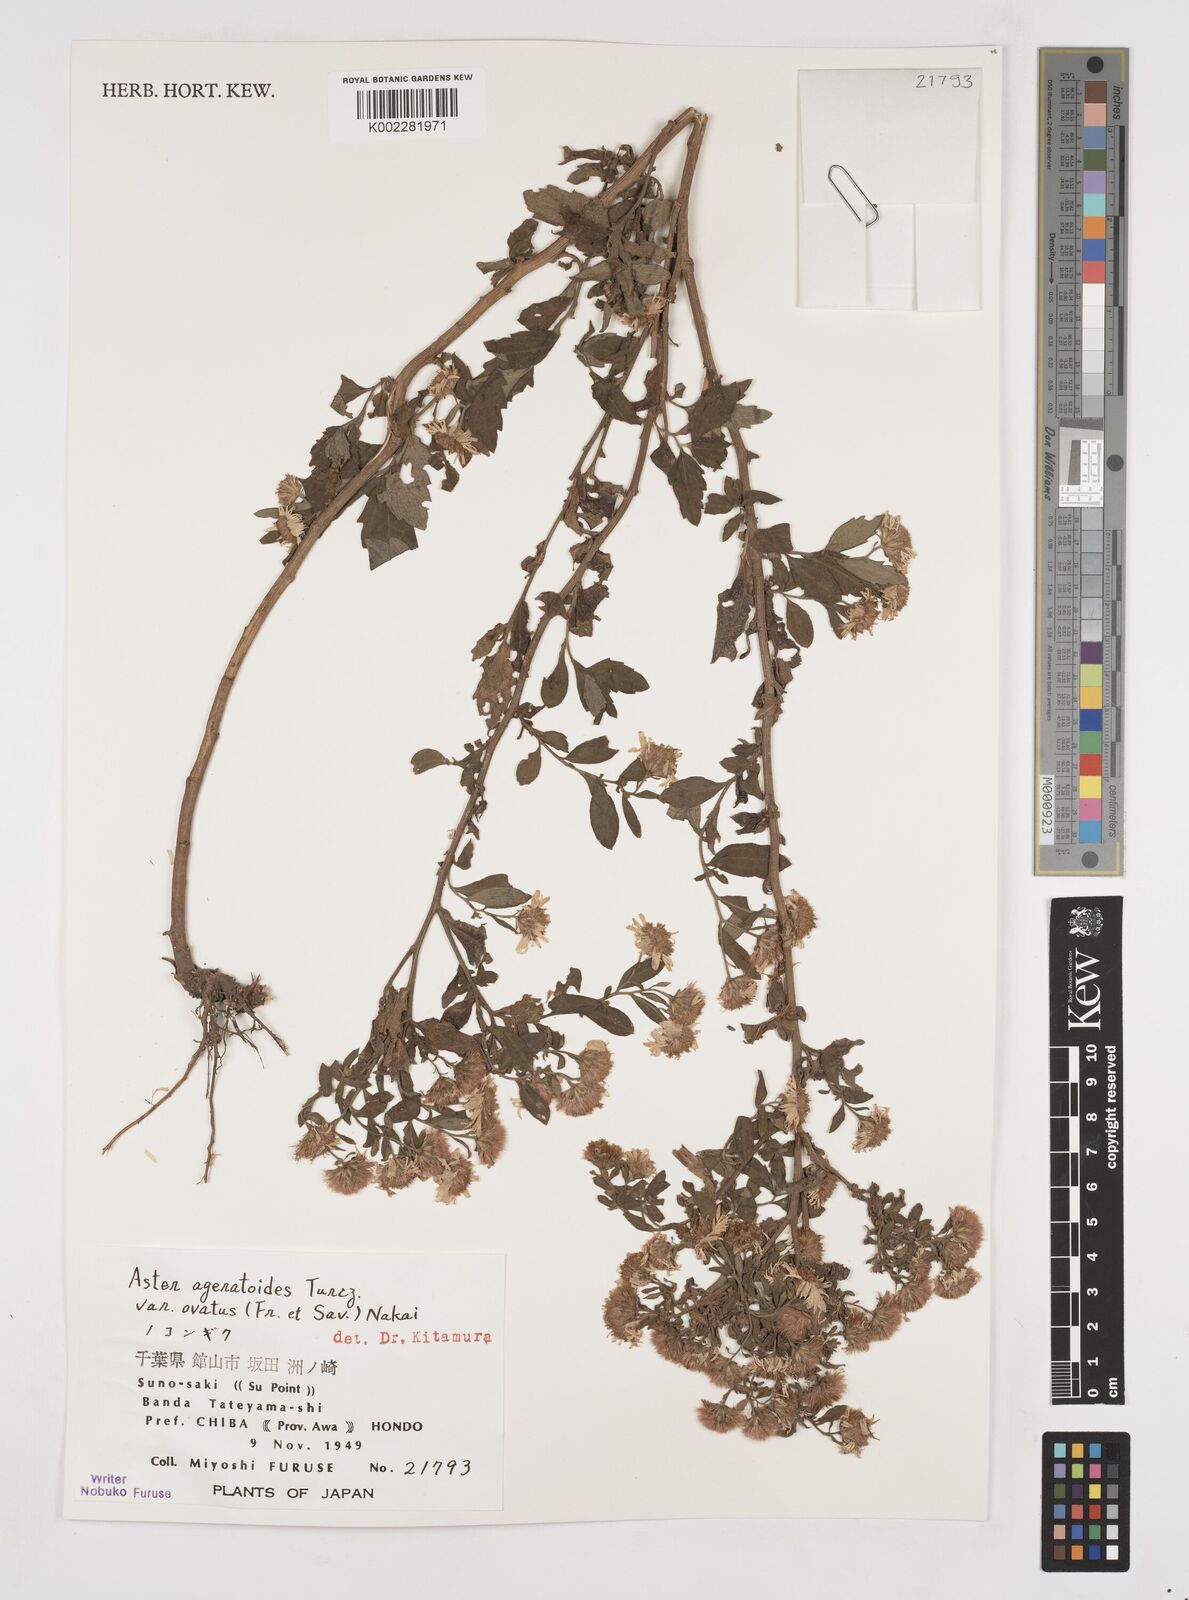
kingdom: Plantae
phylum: Tracheophyta
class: Magnoliopsida
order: Asterales
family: Asteraceae
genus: Aster
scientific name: Aster trinervius
